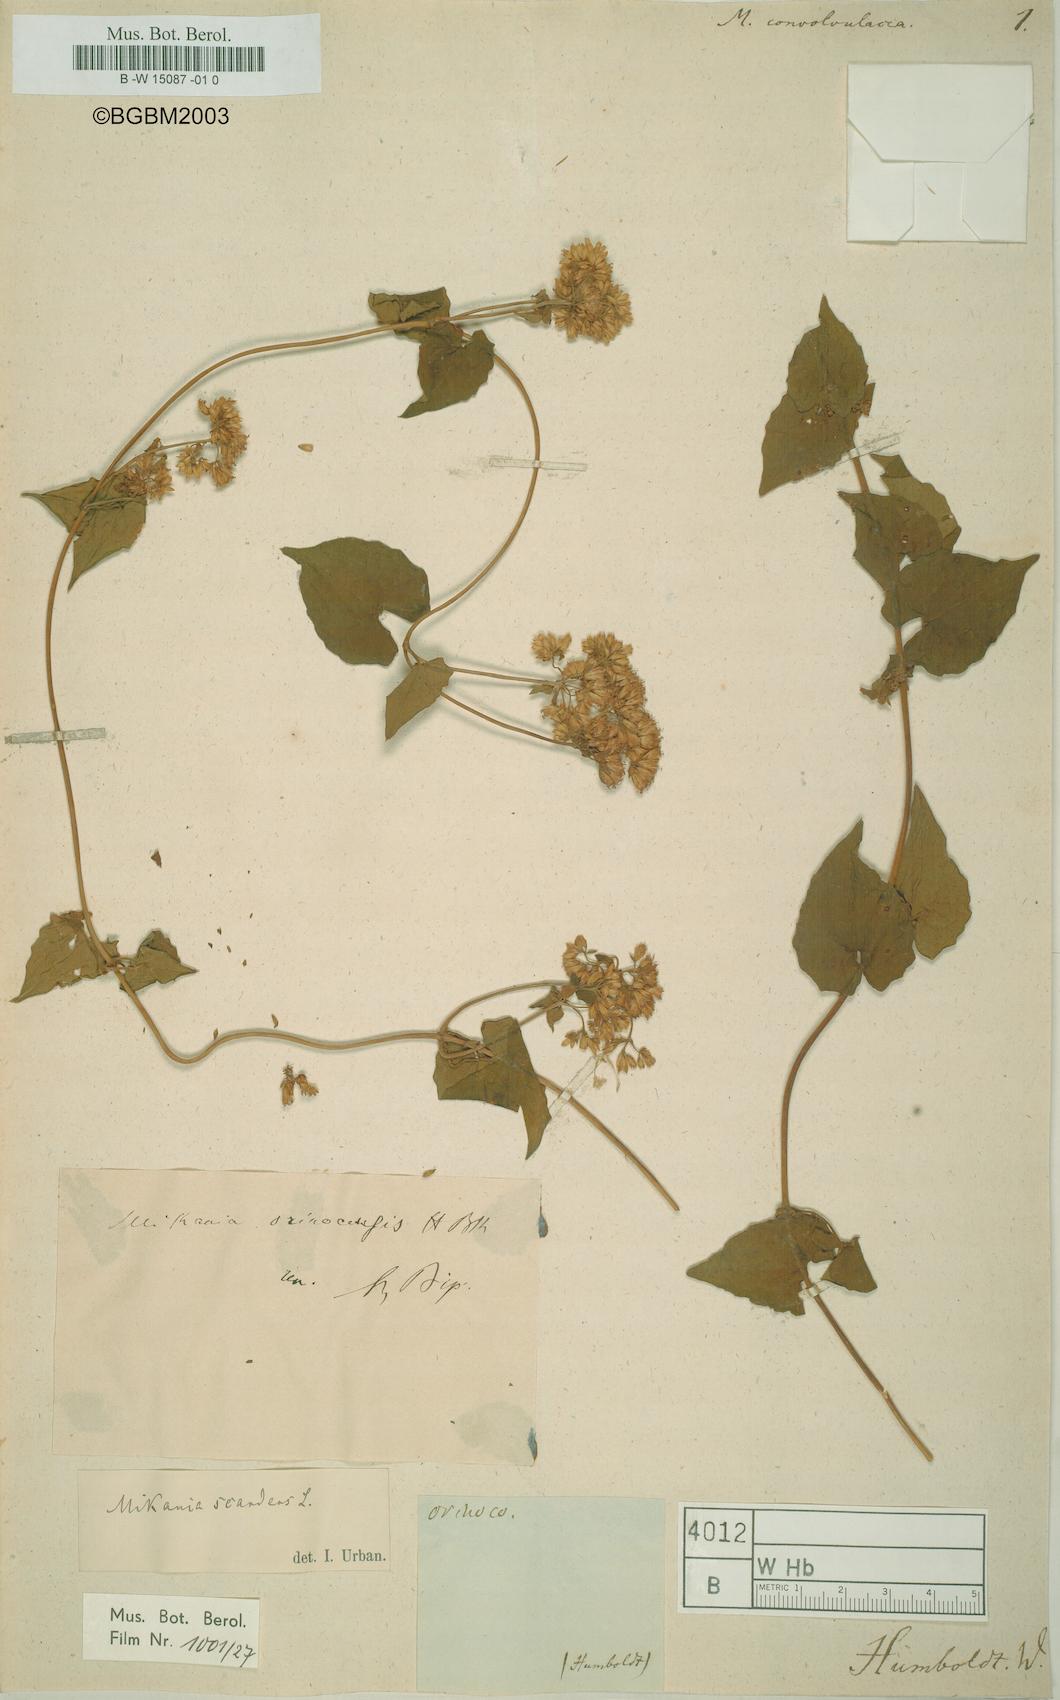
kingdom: Plantae
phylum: Tracheophyta
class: Magnoliopsida
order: Asterales
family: Asteraceae
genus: Mikania
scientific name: Mikania cordifolia
